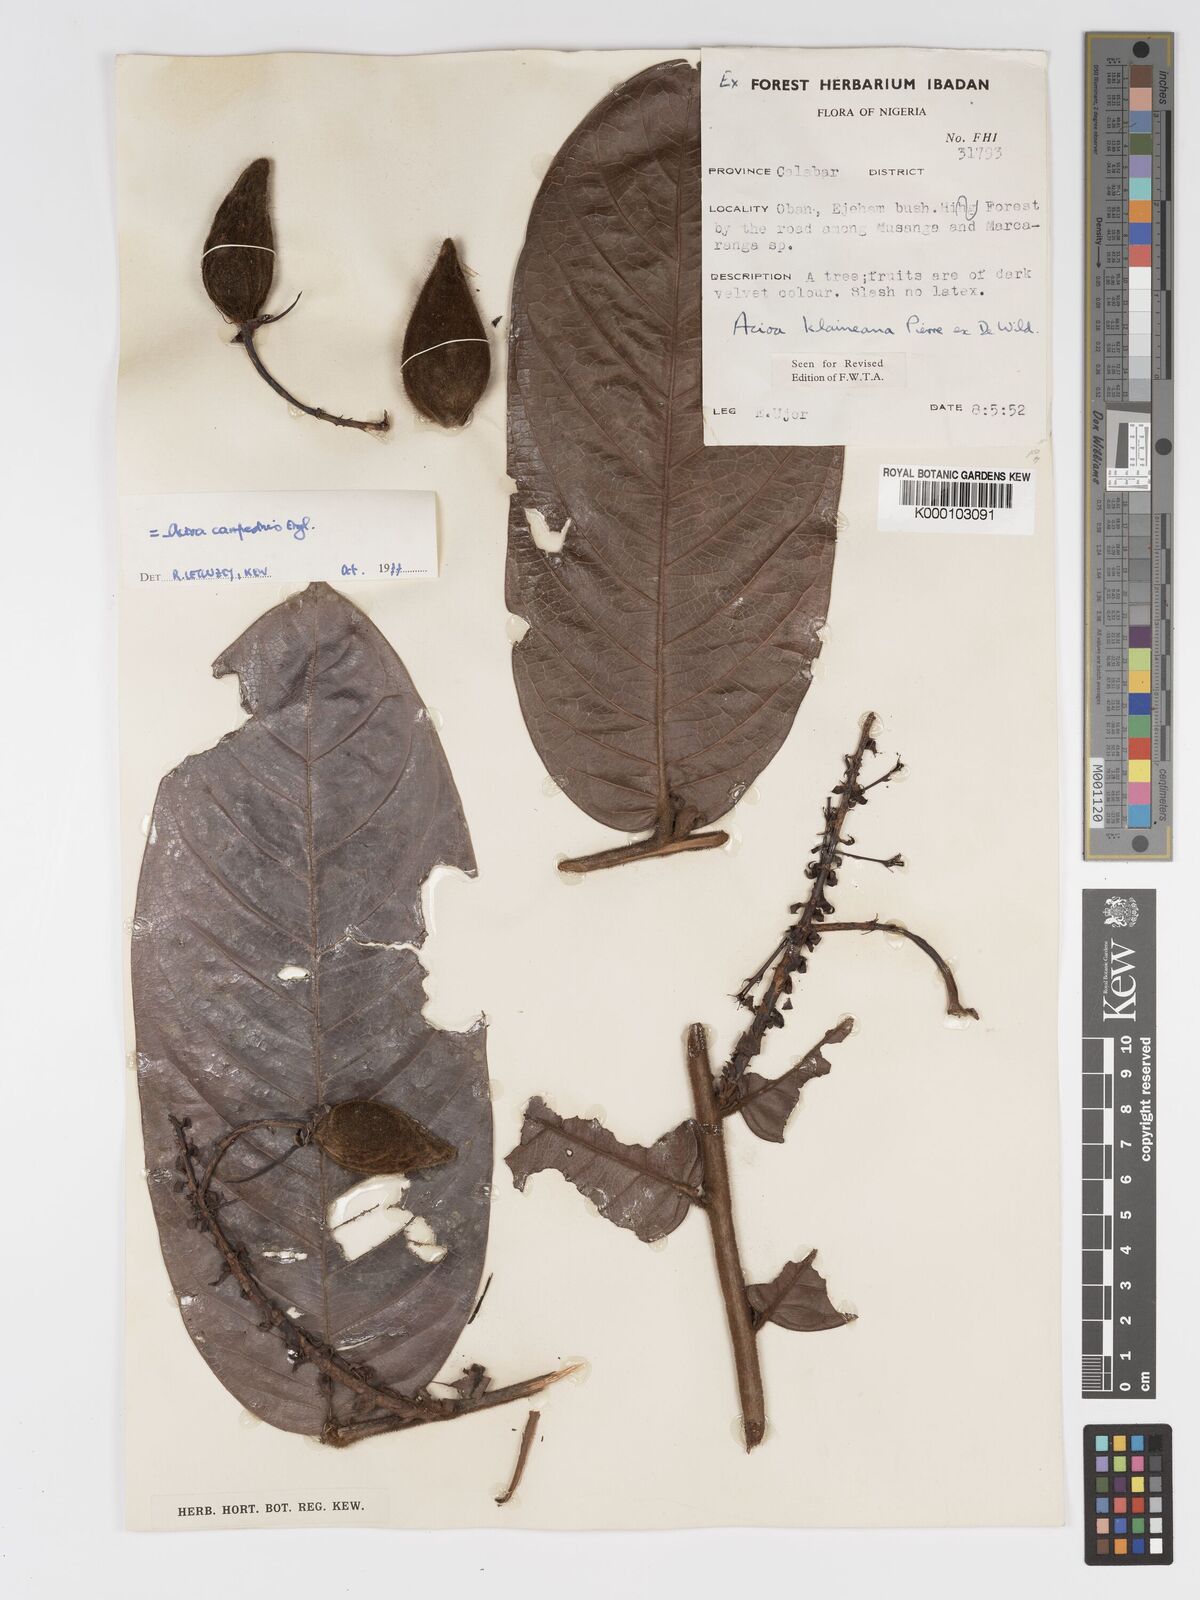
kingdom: Plantae
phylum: Tracheophyta
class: Magnoliopsida
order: Malpighiales
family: Chrysobalanaceae
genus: Dactyladenia
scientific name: Dactyladenia campestris
